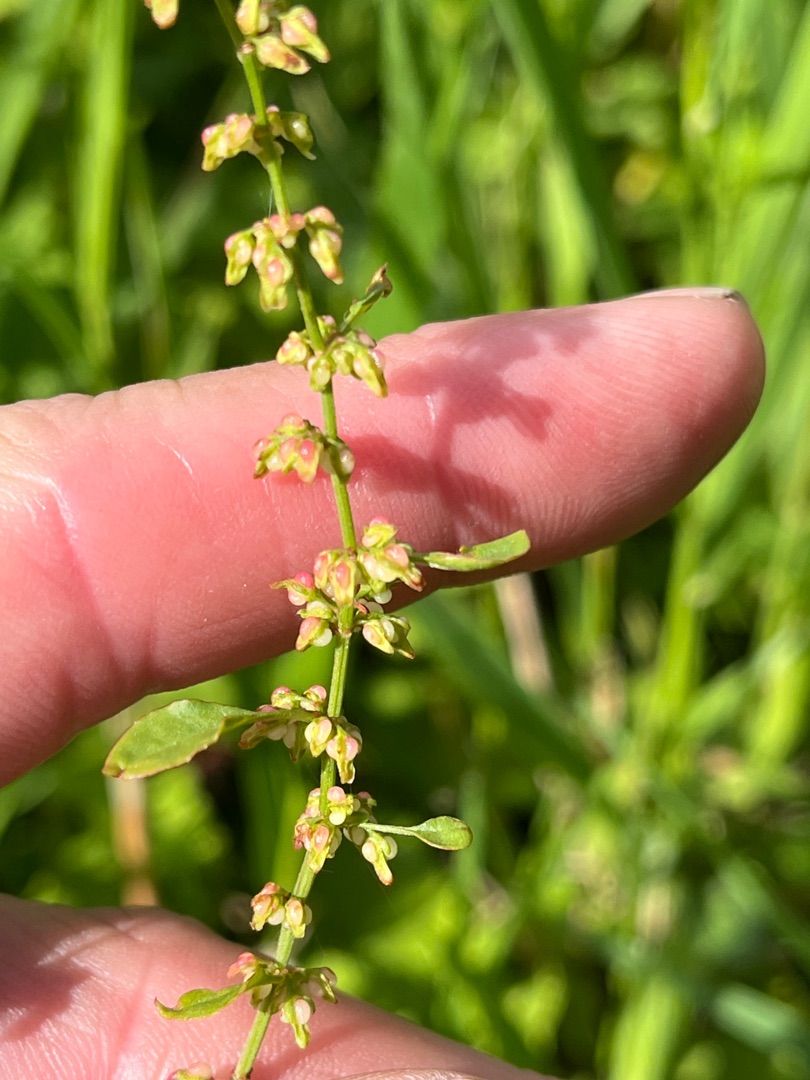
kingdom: Plantae
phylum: Tracheophyta
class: Magnoliopsida
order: Caryophyllales
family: Polygonaceae
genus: Rumex
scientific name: Rumex conglomeratus
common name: Nøgle-skræppe
